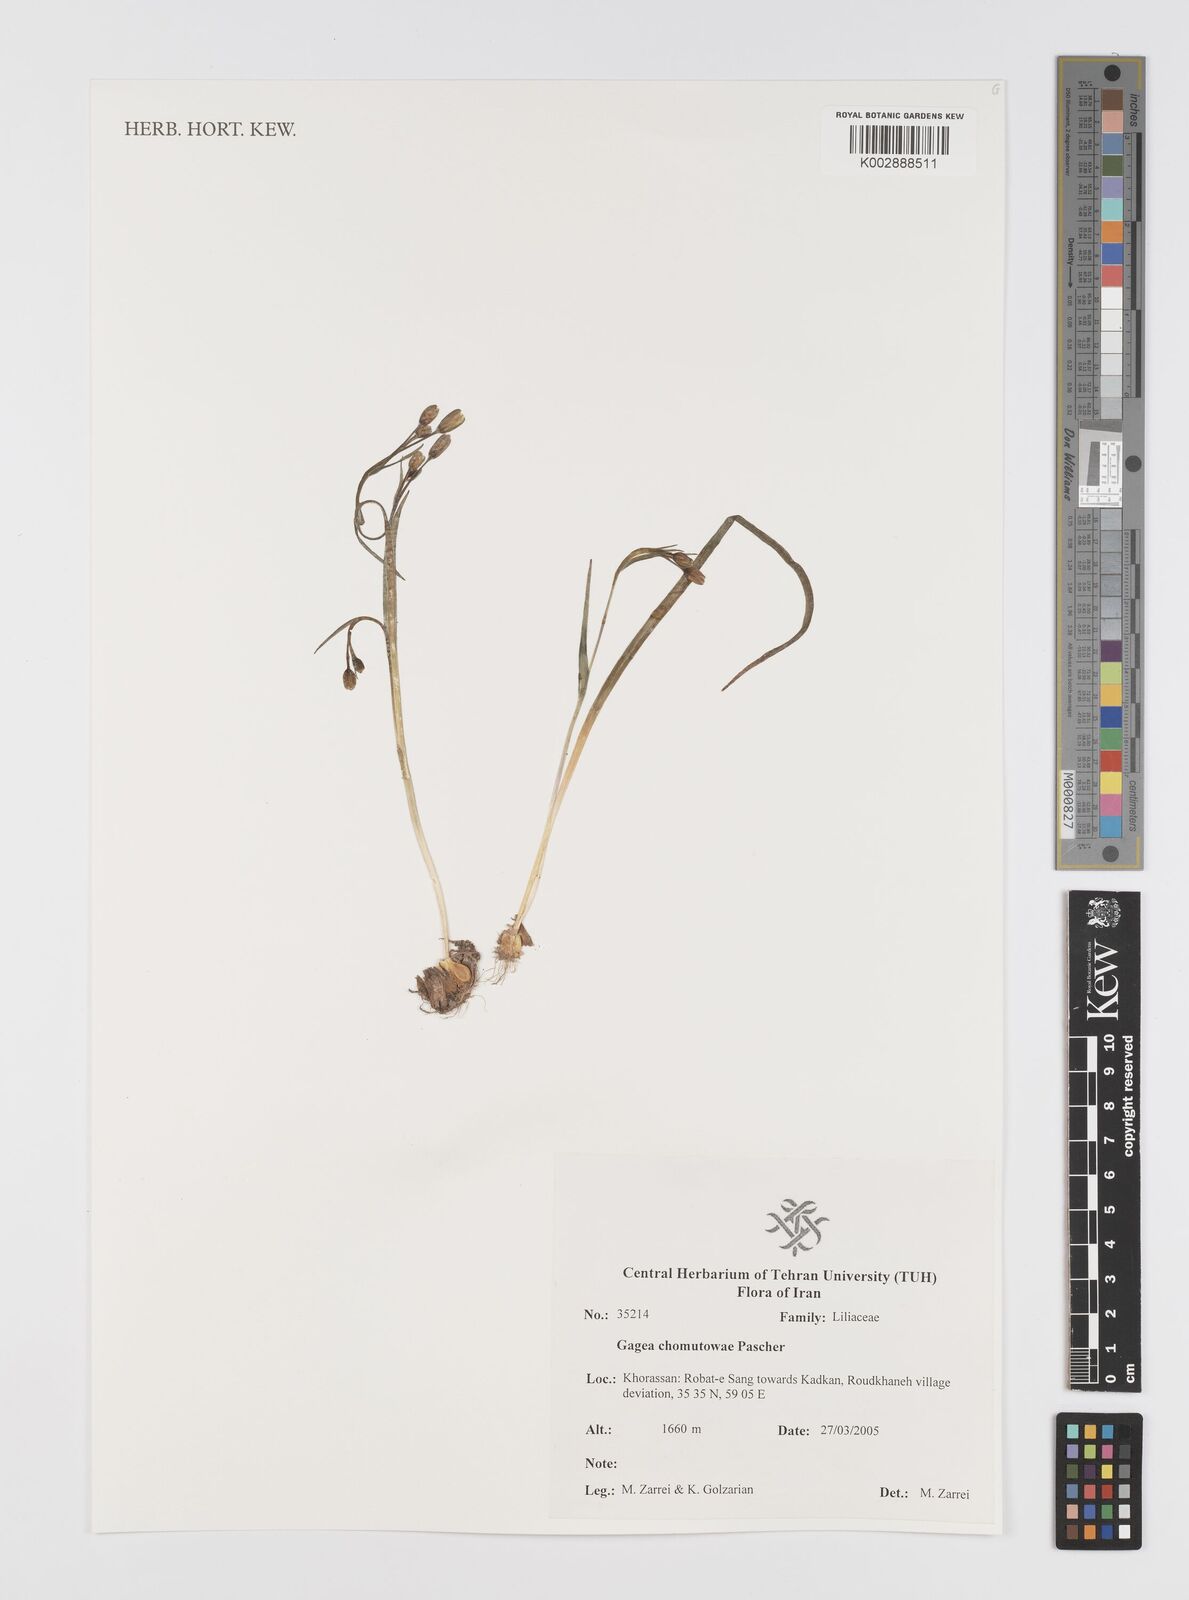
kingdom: Plantae
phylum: Tracheophyta
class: Liliopsida
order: Liliales
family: Liliaceae
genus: Gagea
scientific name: Gagea chomutovae
